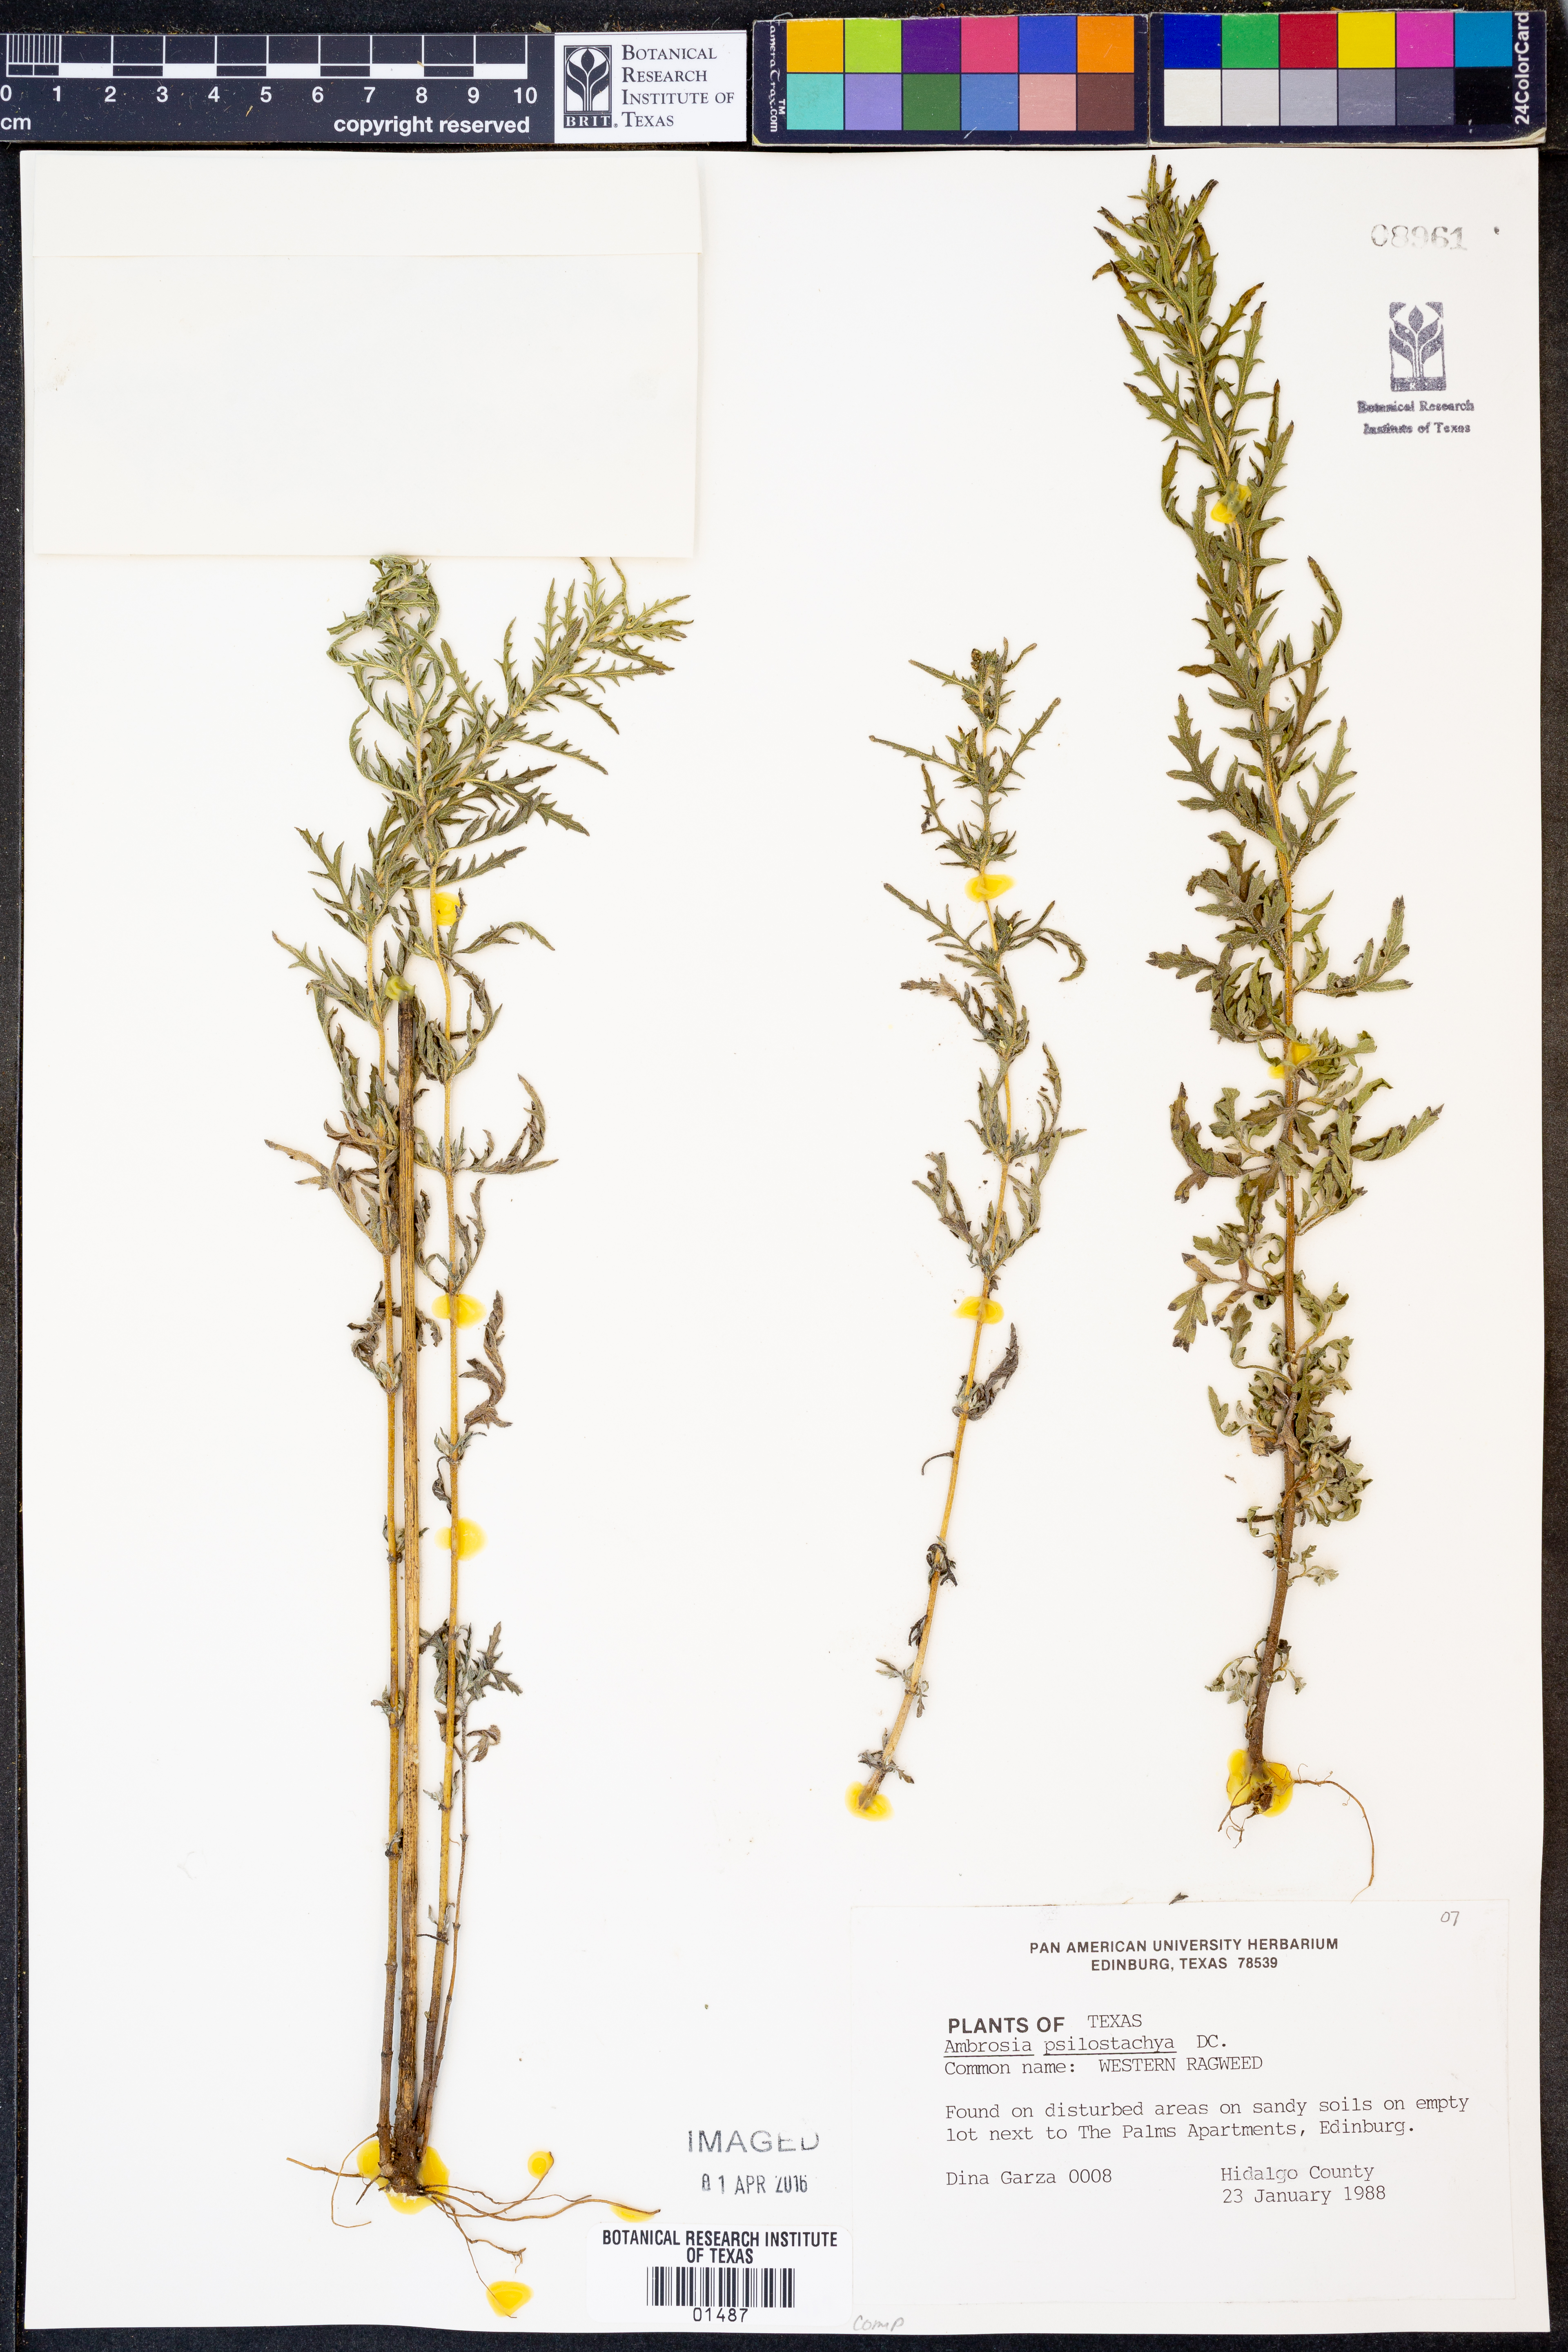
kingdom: Plantae
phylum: Tracheophyta
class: Magnoliopsida
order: Asterales
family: Asteraceae
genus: Ambrosia
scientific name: Ambrosia psilostachya
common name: Perennial ragweed
